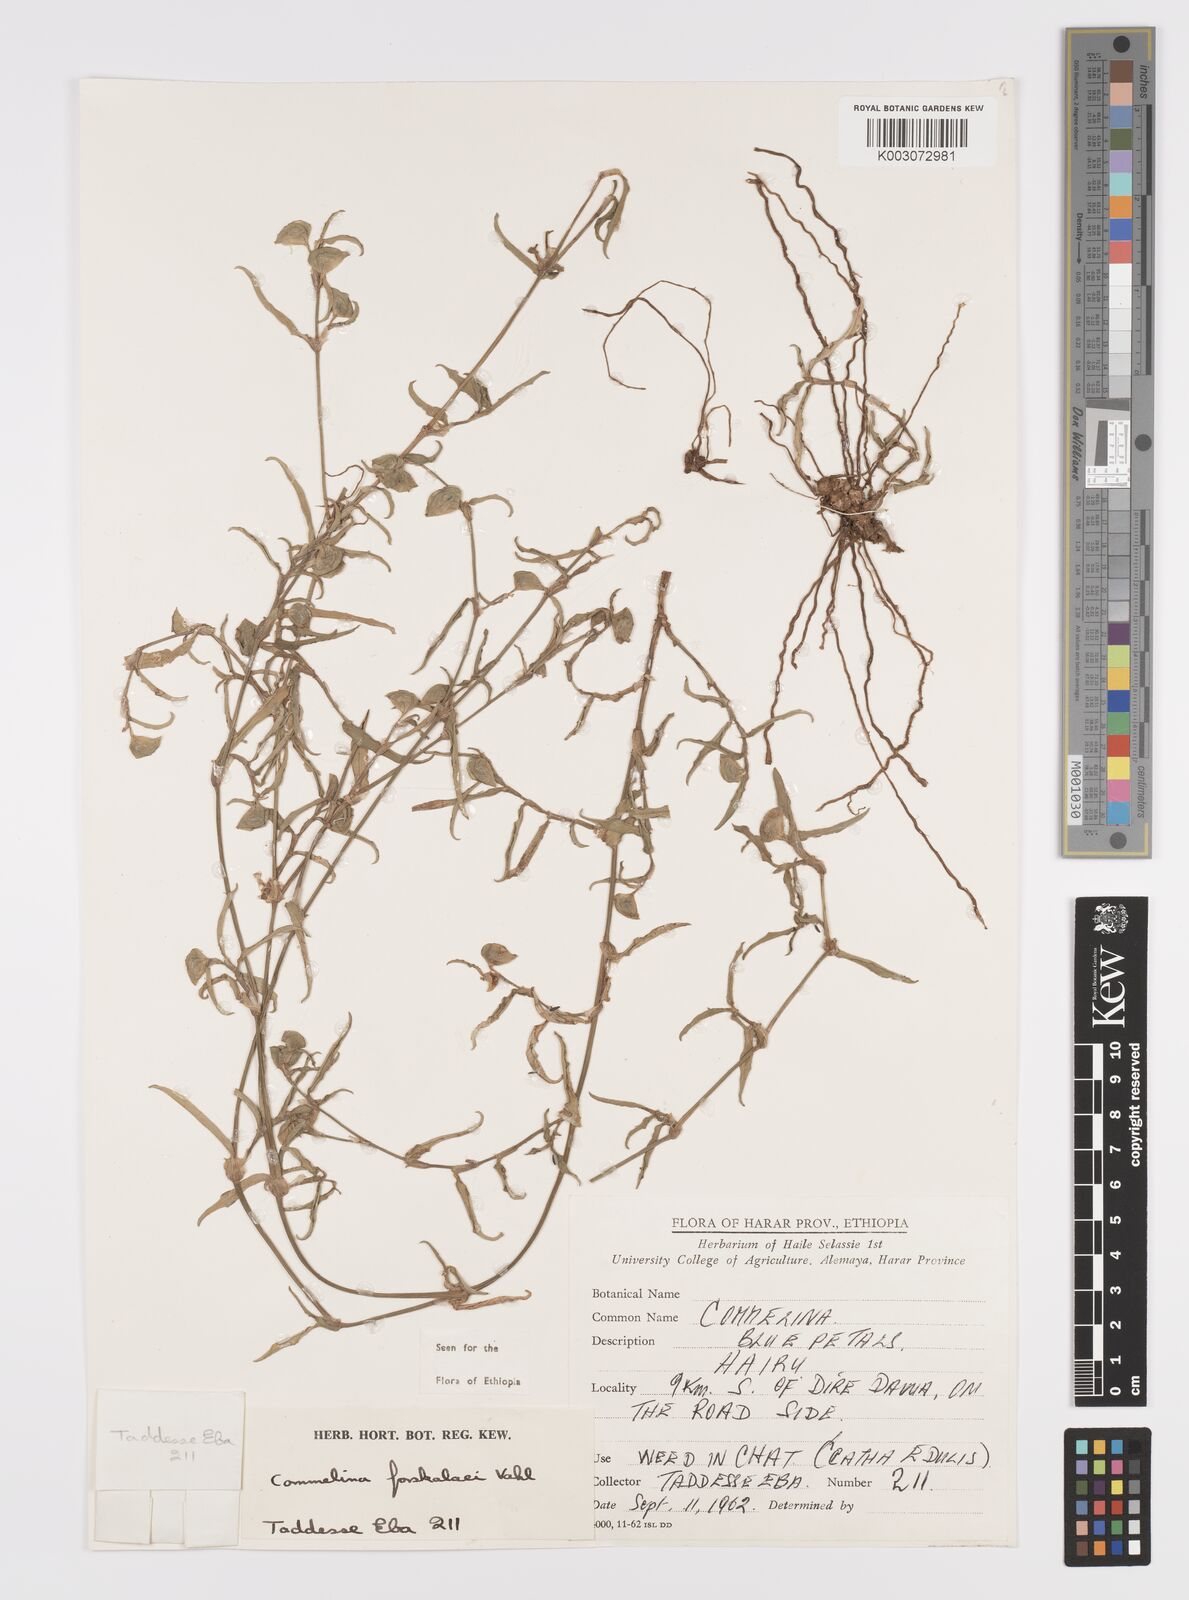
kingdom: Plantae
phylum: Tracheophyta
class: Liliopsida
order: Commelinales
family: Commelinaceae
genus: Commelina
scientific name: Commelina forskaolii
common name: Rat's ear
